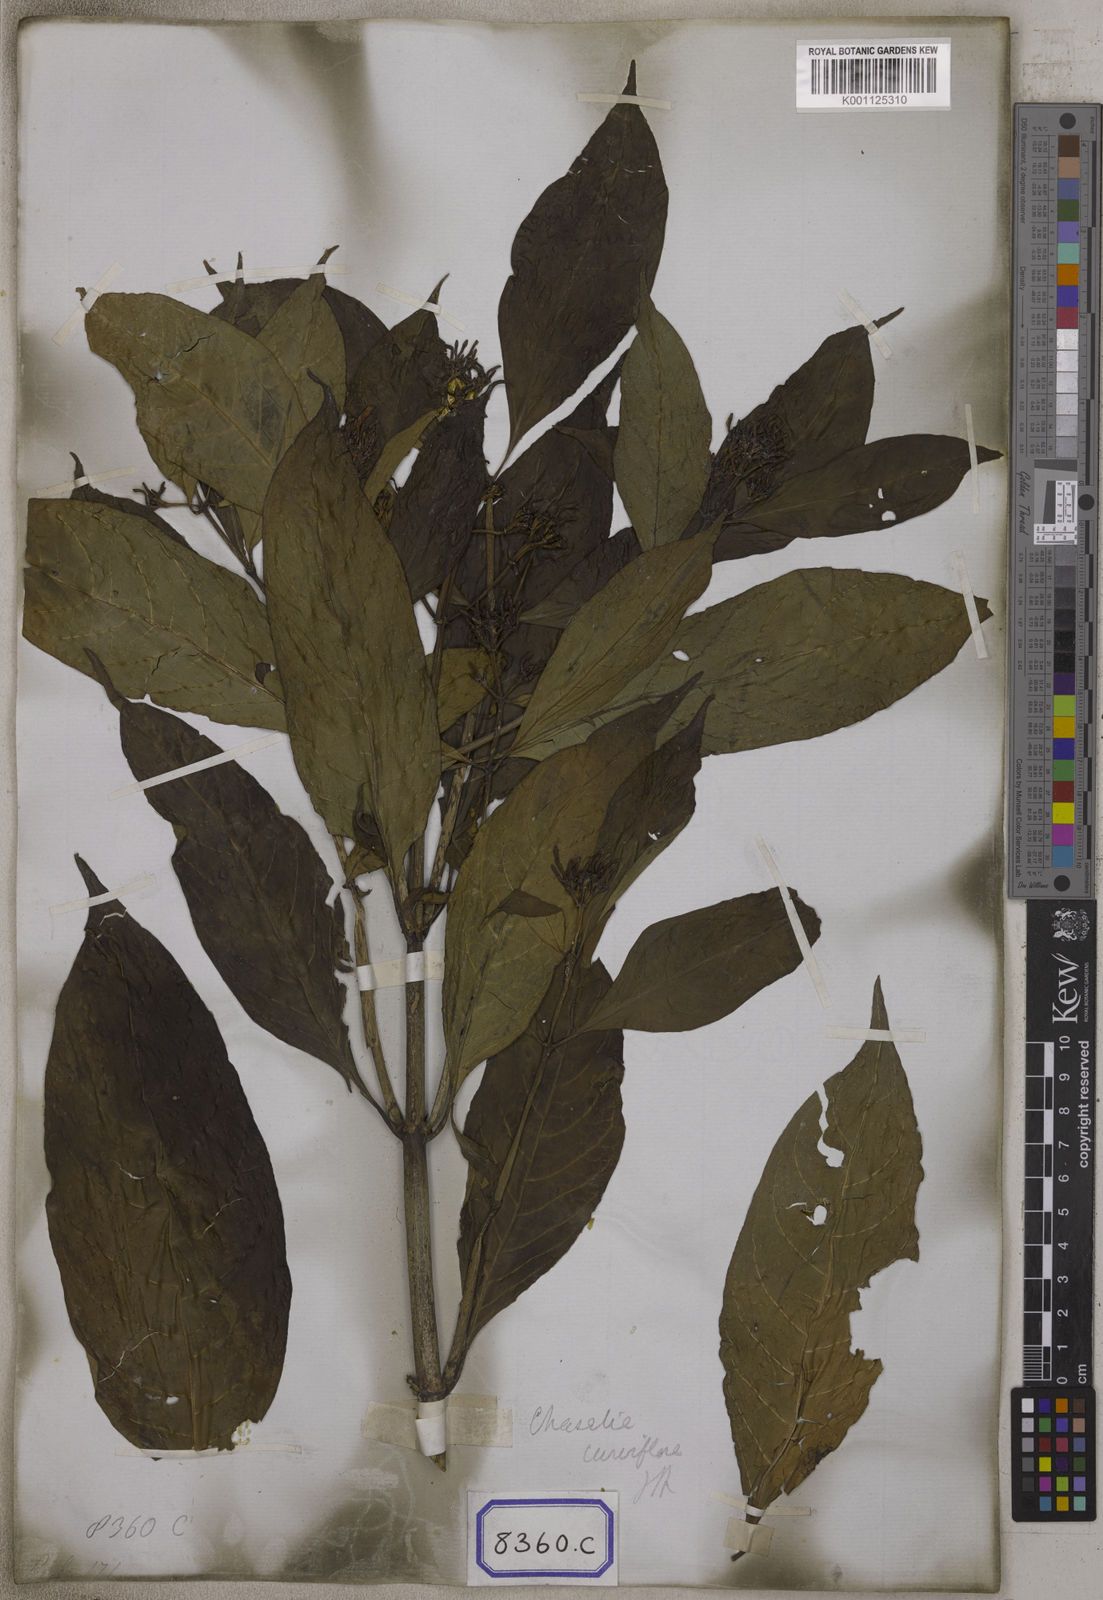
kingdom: Plantae
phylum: Tracheophyta
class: Magnoliopsida
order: Gentianales
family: Rubiaceae
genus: Chassalia
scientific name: Chassalia curviflora
